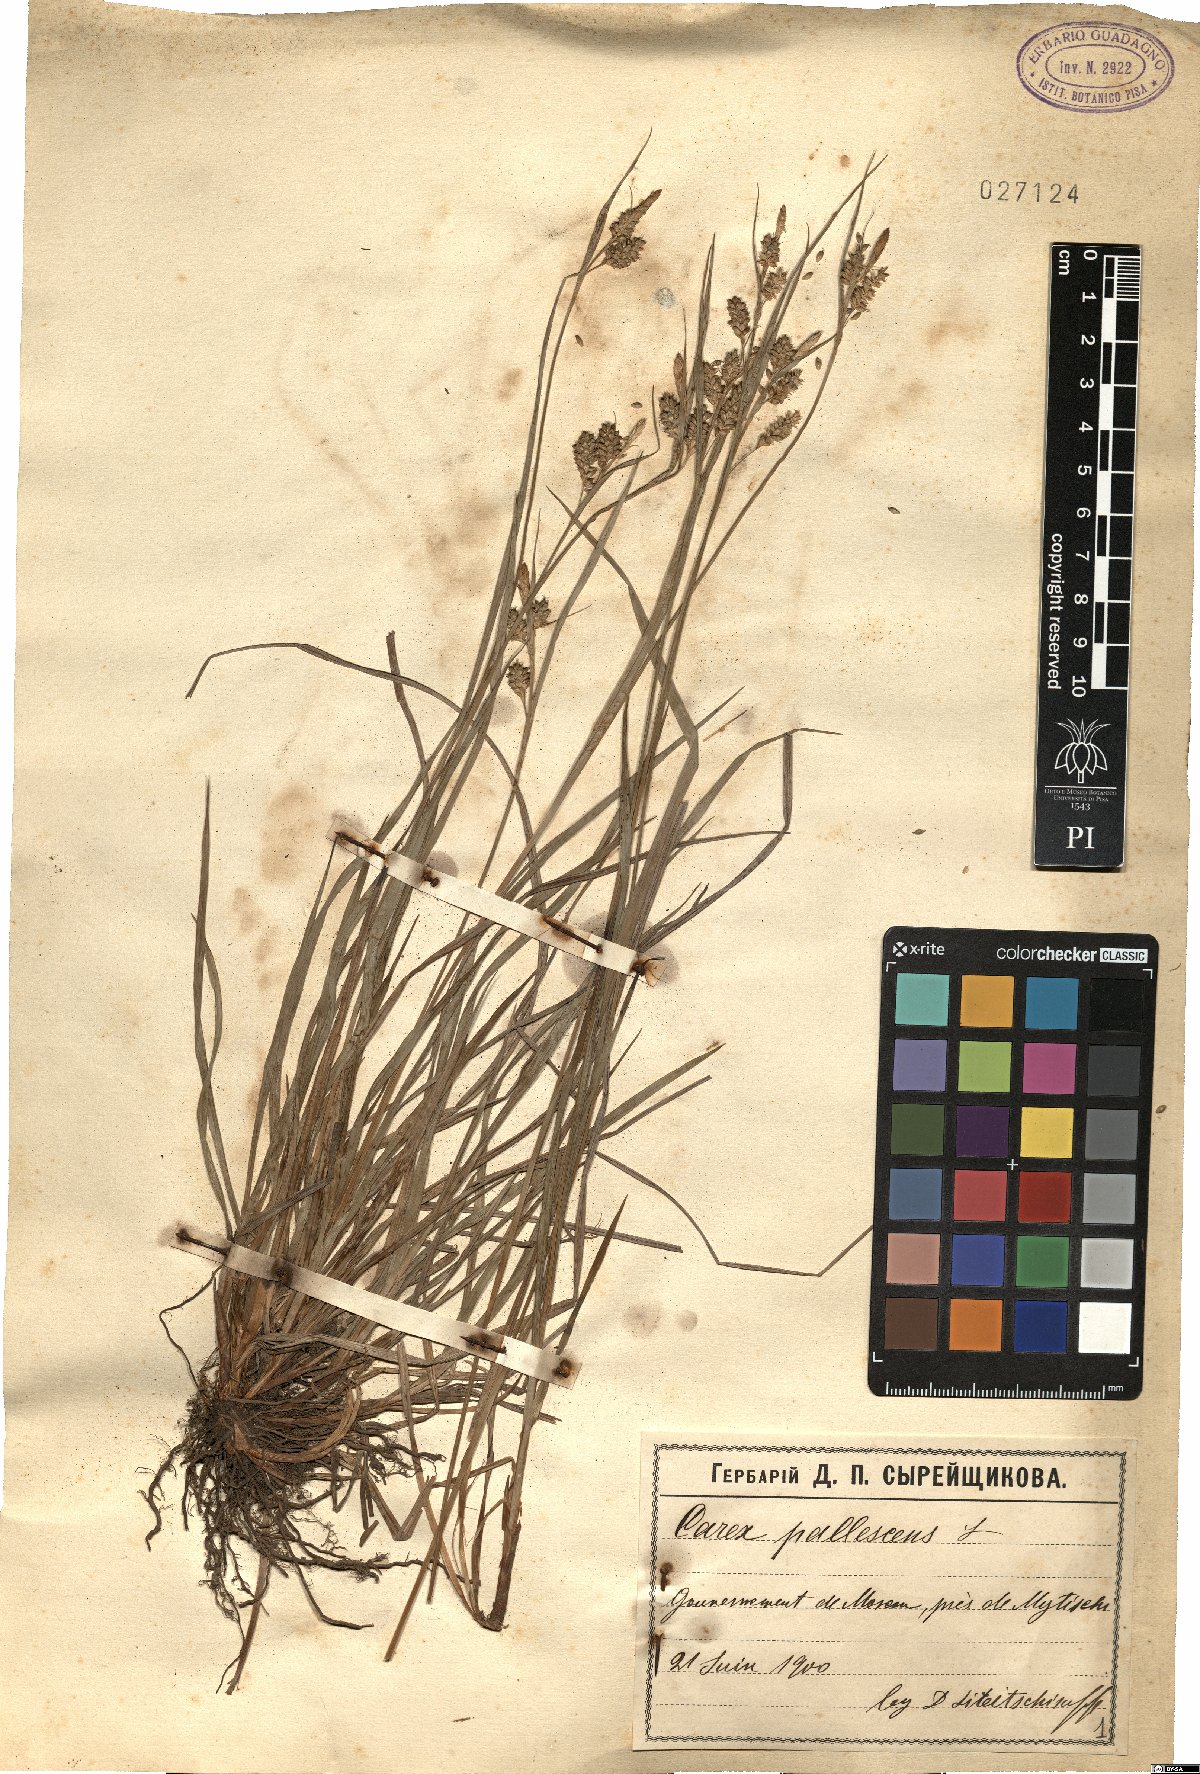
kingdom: Plantae
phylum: Tracheophyta
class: Liliopsida
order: Poales
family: Cyperaceae
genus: Carex
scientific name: Carex pallescens
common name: Pale sedge
